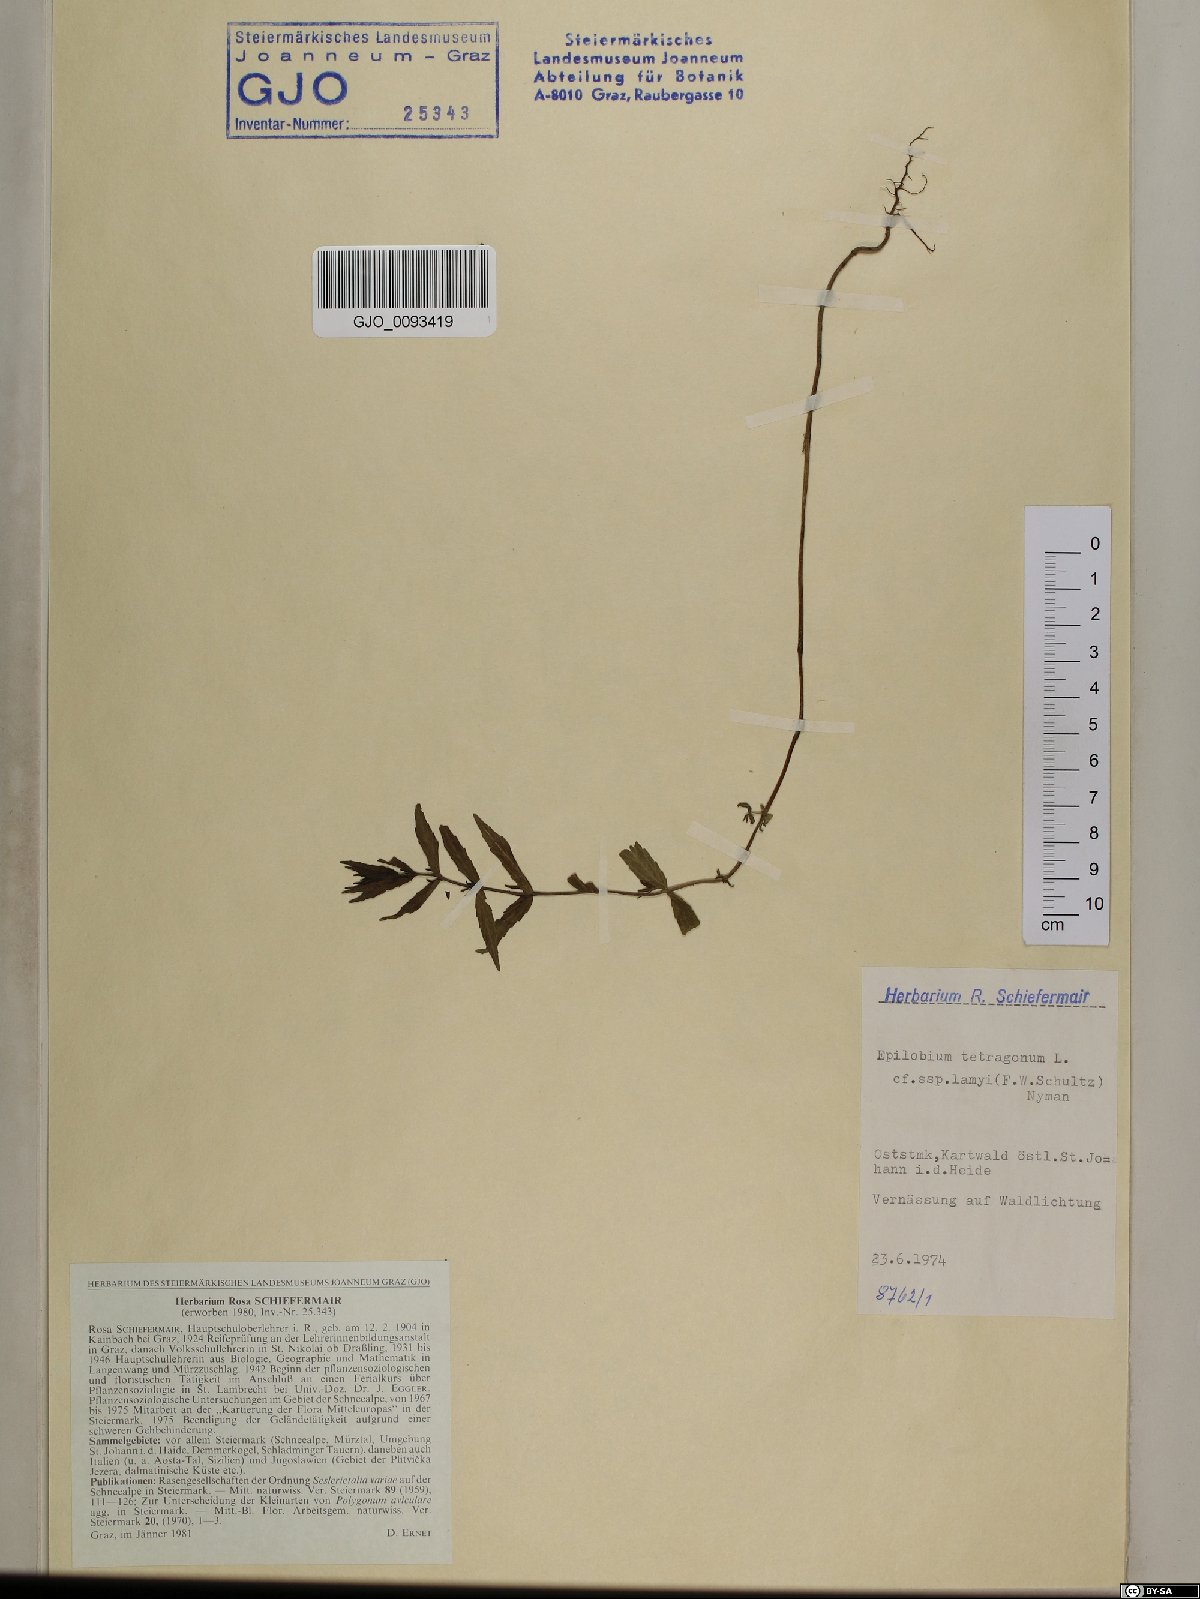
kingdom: Plantae
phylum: Tracheophyta
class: Magnoliopsida
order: Myrtales
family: Onagraceae
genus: Epilobium
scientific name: Epilobium lamyi
